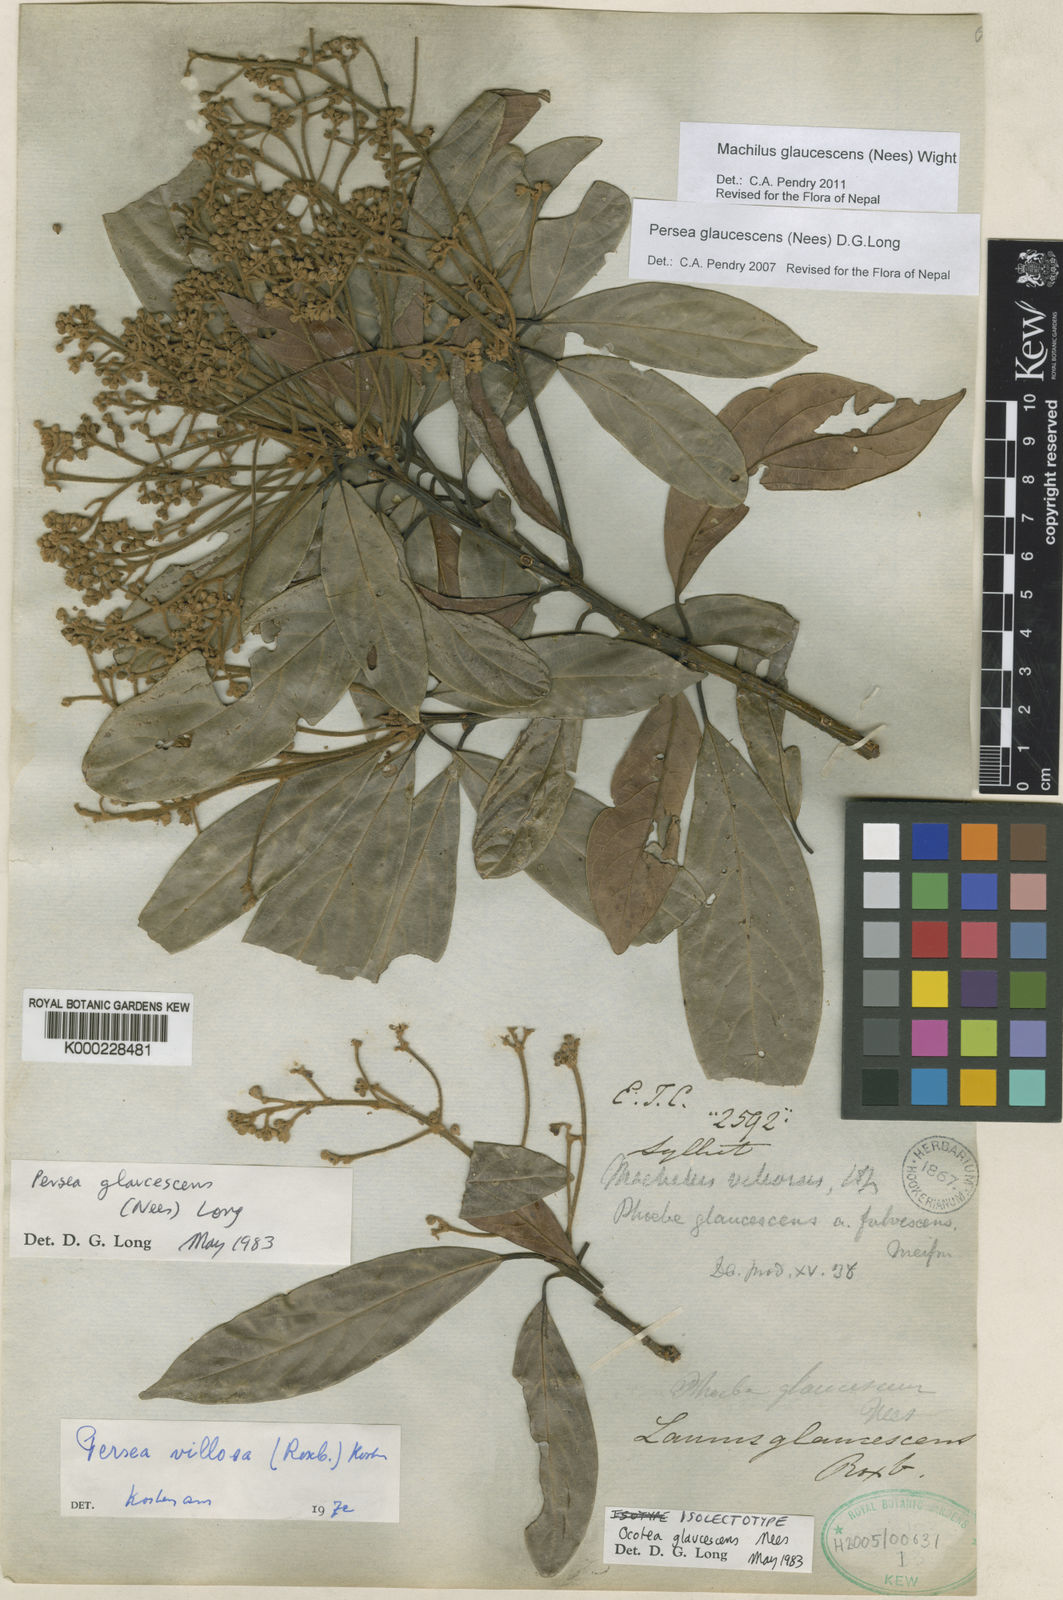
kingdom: Plantae
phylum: Tracheophyta
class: Magnoliopsida
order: Laurales
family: Lauraceae
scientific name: Lauraceae
